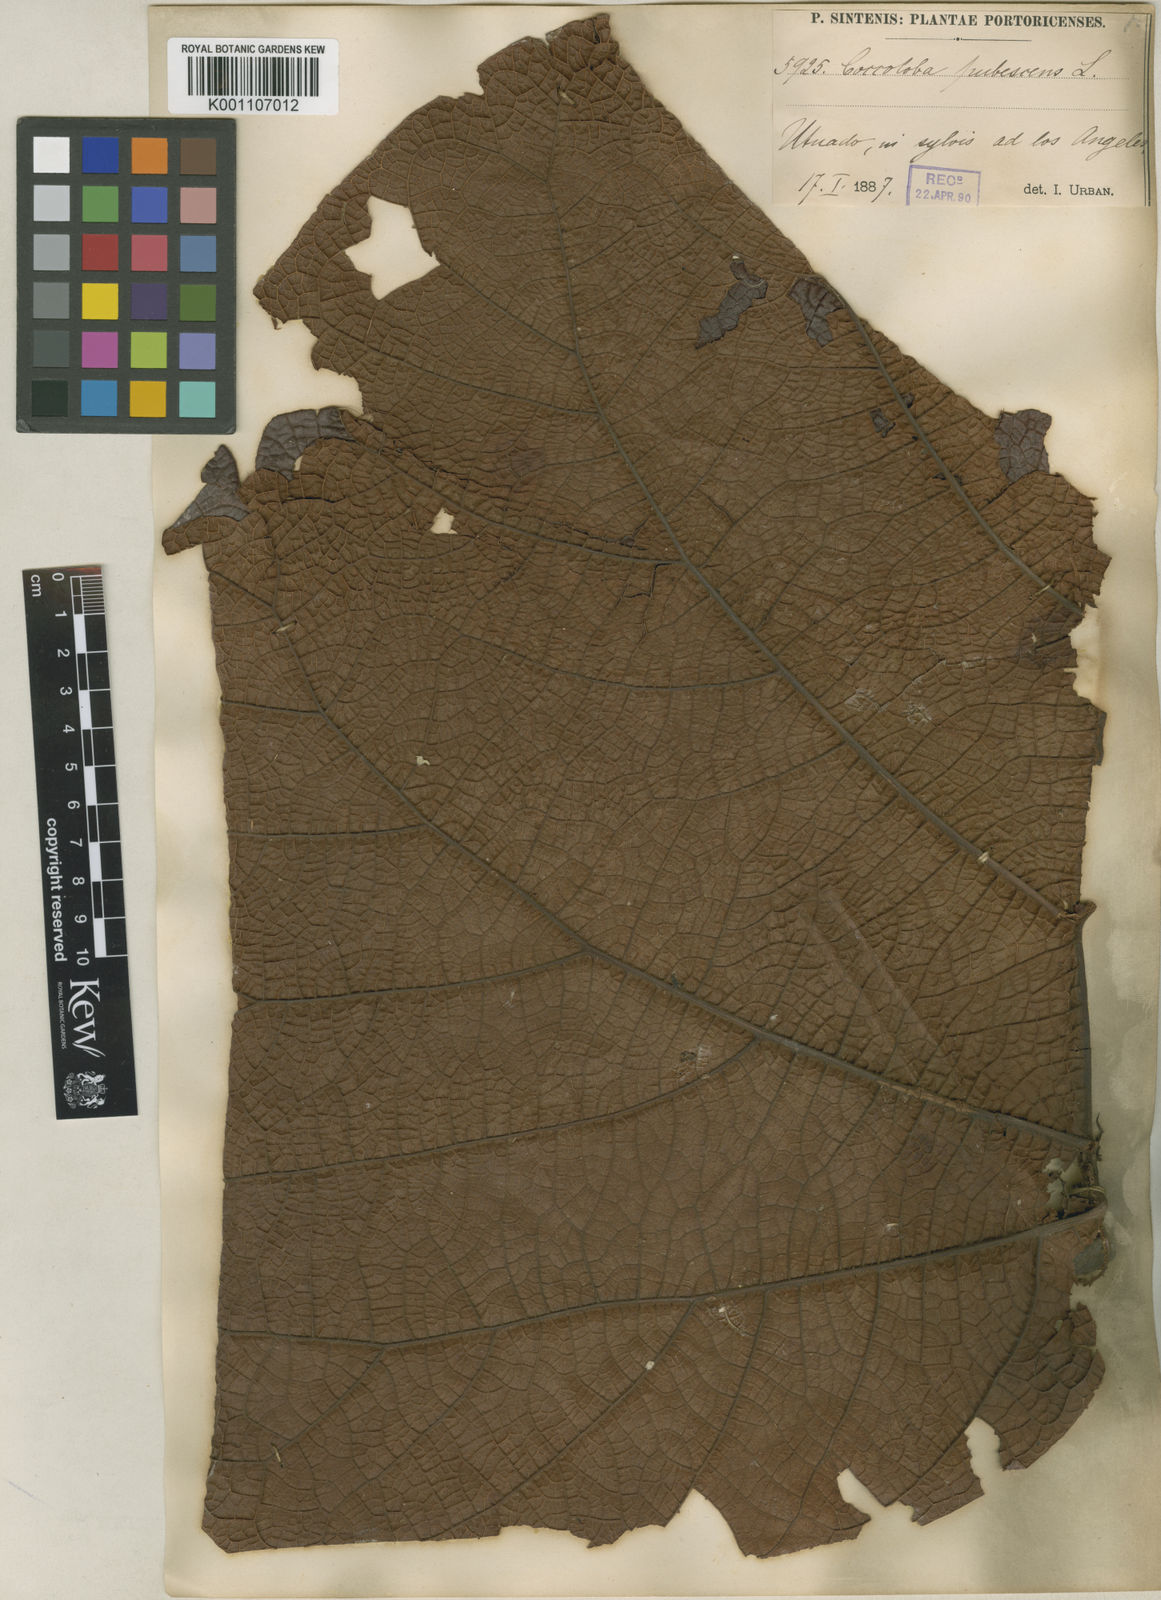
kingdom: Plantae
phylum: Tracheophyta
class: Magnoliopsida
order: Caryophyllales
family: Polygonaceae
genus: Coccoloba
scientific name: Coccoloba pubescens
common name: Mountain-grape
